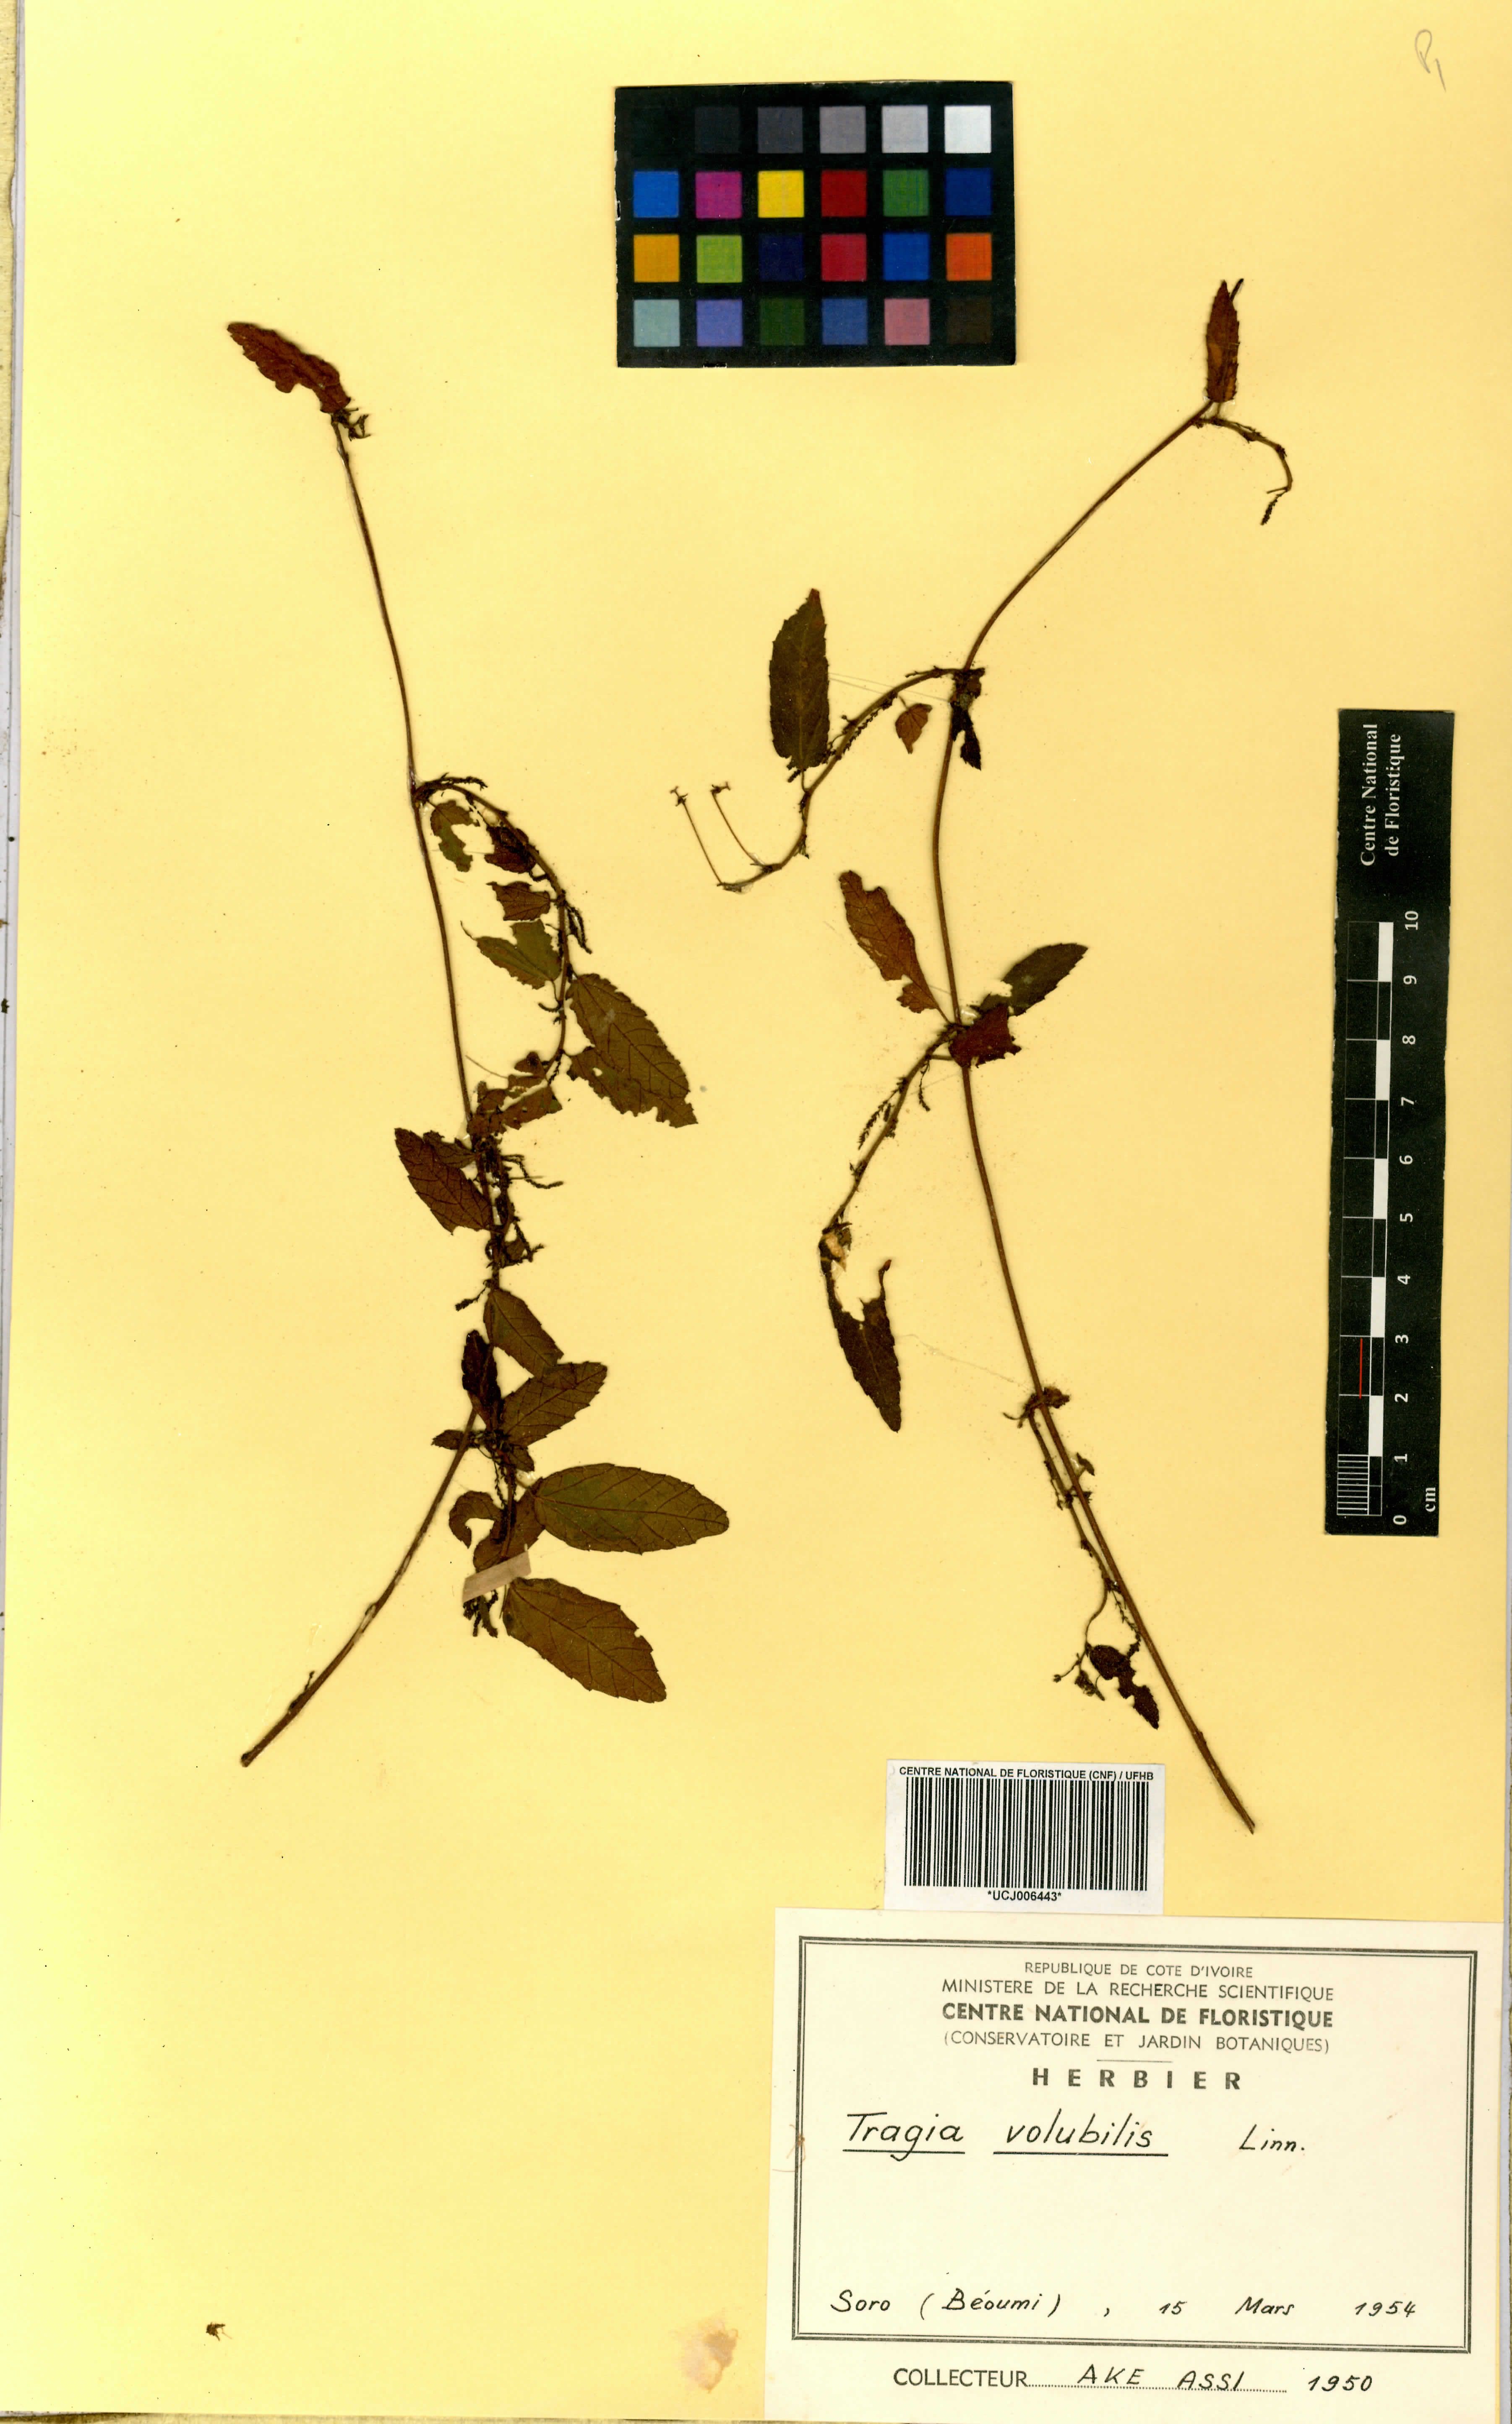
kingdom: Plantae
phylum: Tracheophyta
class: Magnoliopsida
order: Malpighiales
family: Euphorbiaceae
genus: Tragia
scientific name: Tragia volubilis
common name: Twining cow-itch
